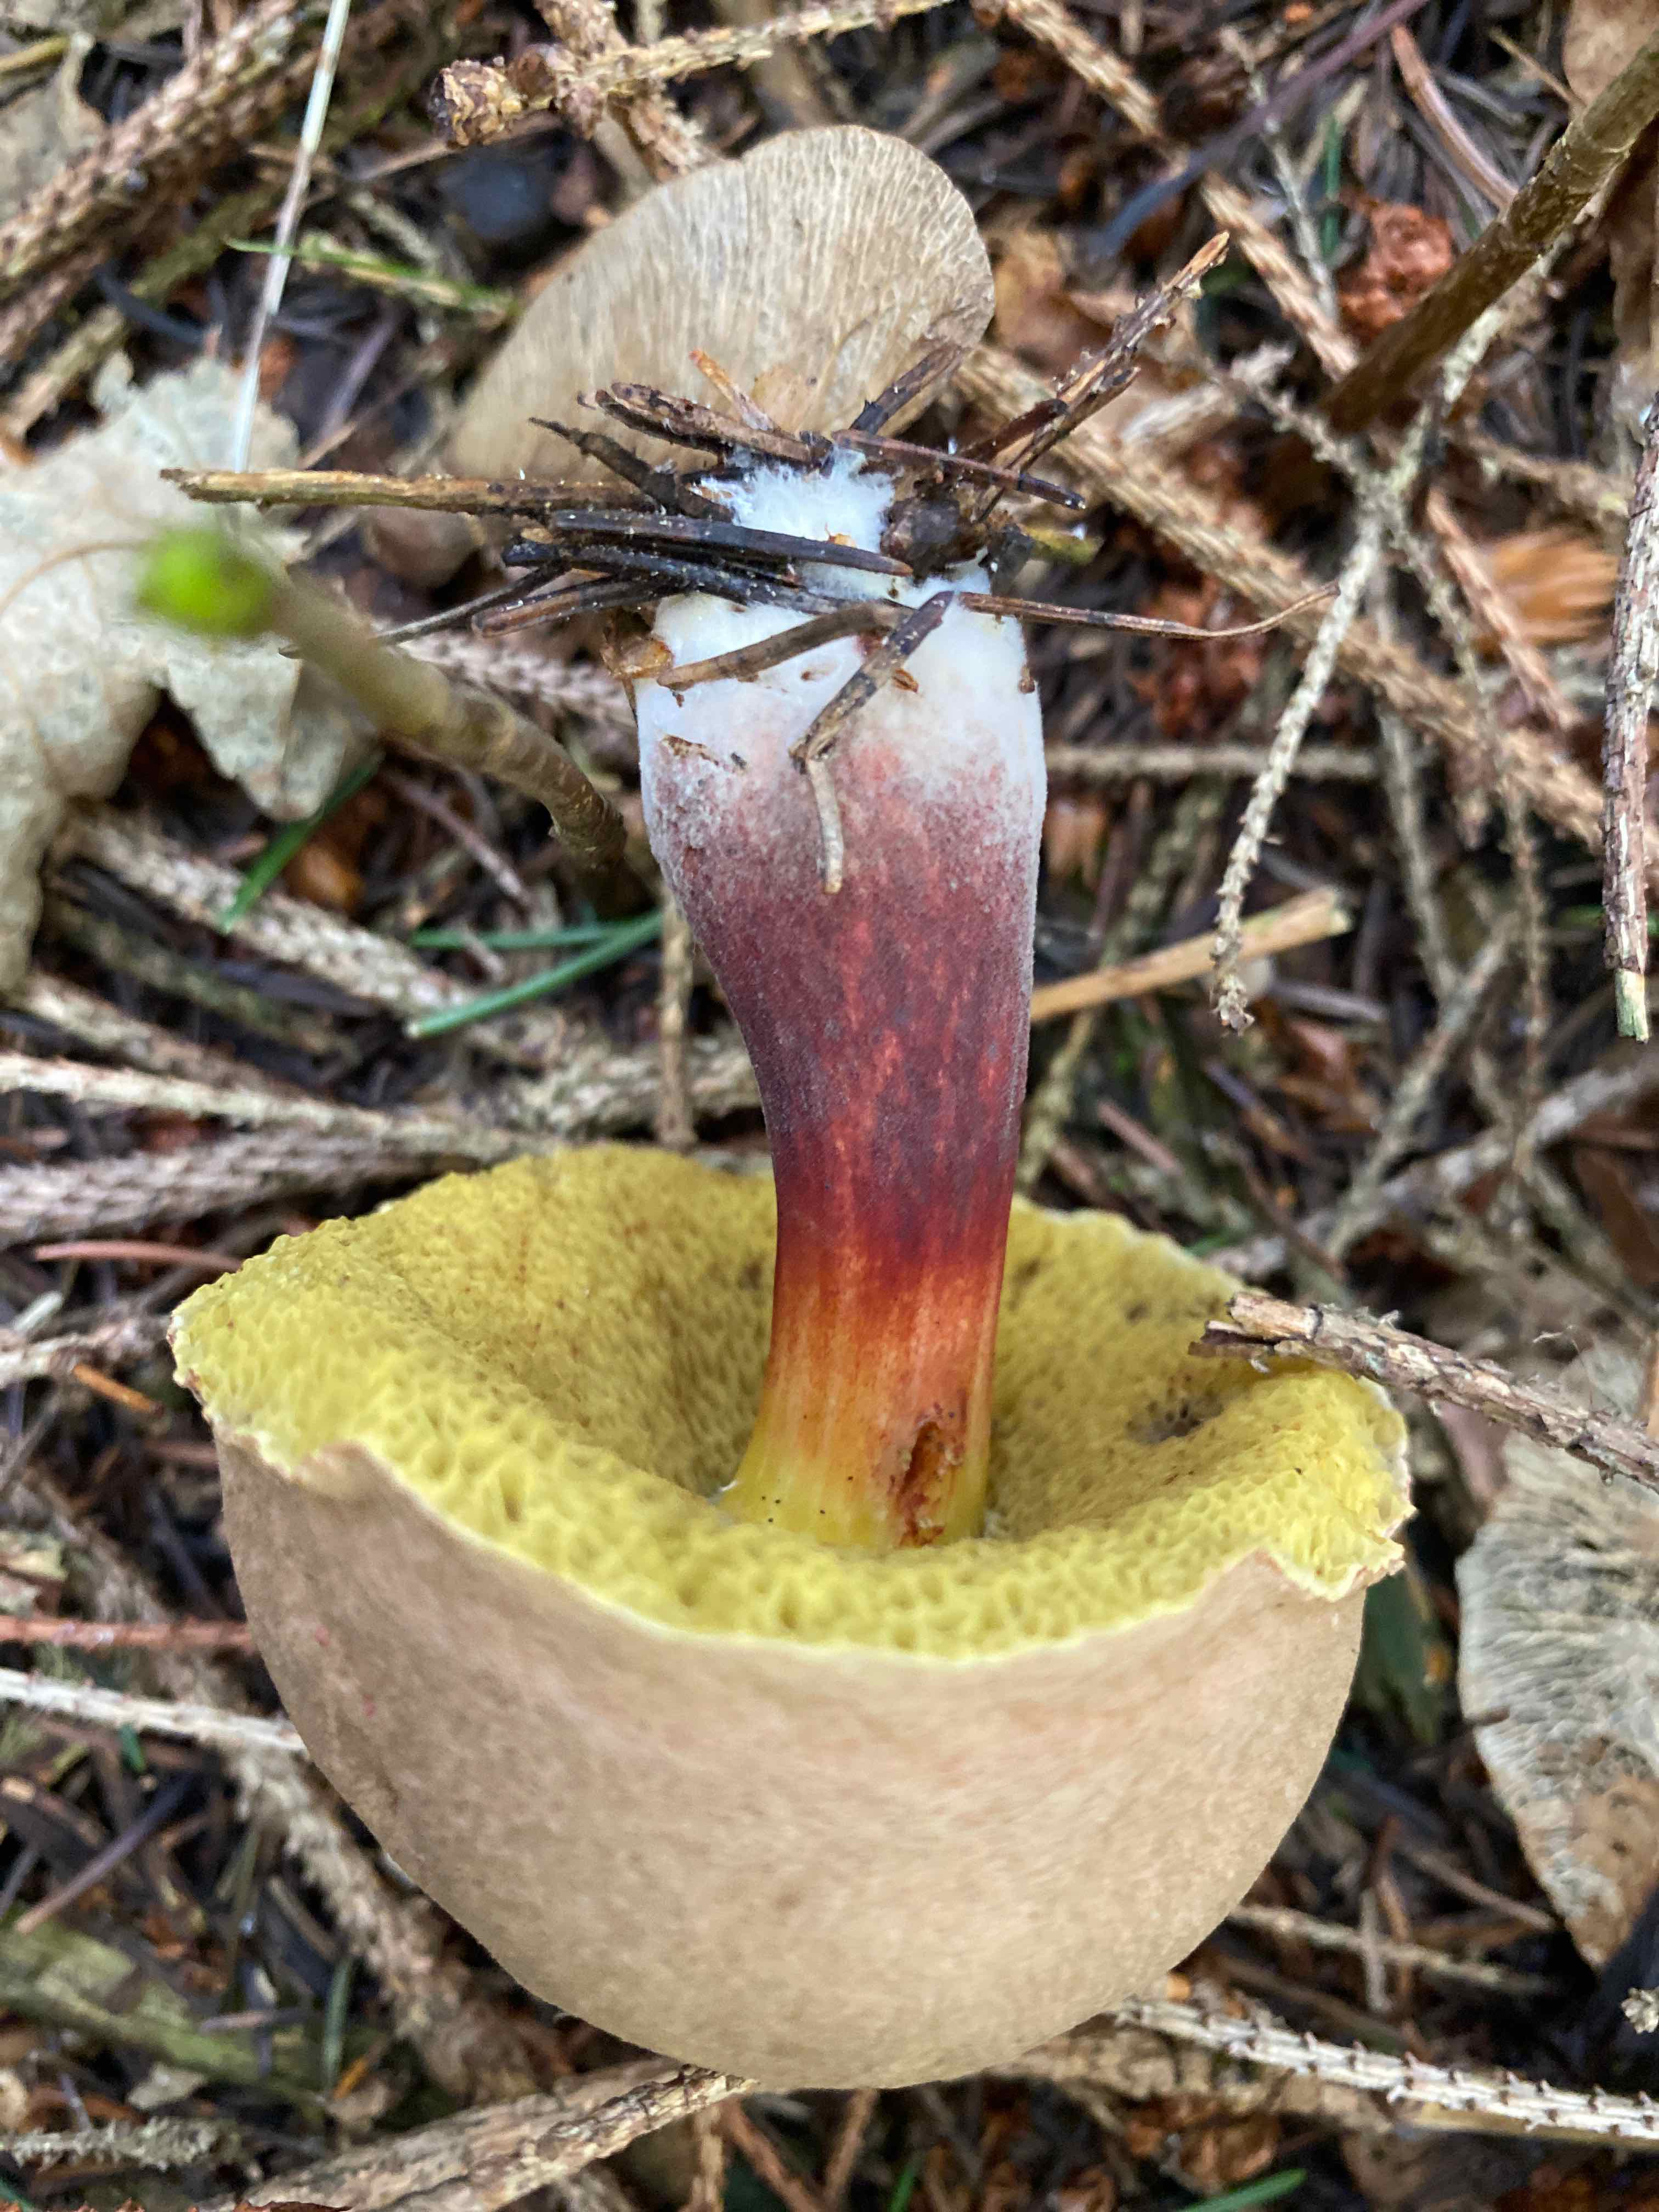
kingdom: Fungi
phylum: Basidiomycota
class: Agaricomycetes
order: Boletales
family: Boletaceae
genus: Xerocomellus
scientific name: Xerocomellus chrysenteron
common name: rødsprukken rørhat
